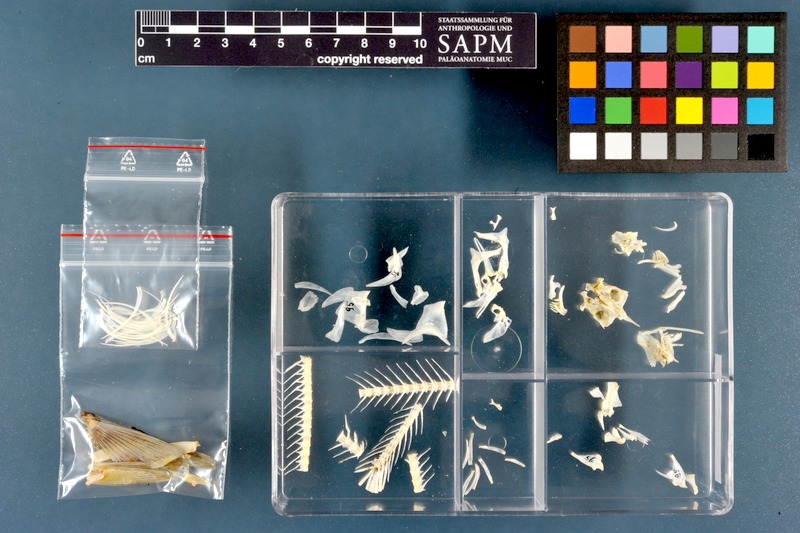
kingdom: Animalia
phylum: Chordata
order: Cypriniformes
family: Cyprinidae
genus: Alburnus
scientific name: Alburnus mossulensis
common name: Mossul bleak
